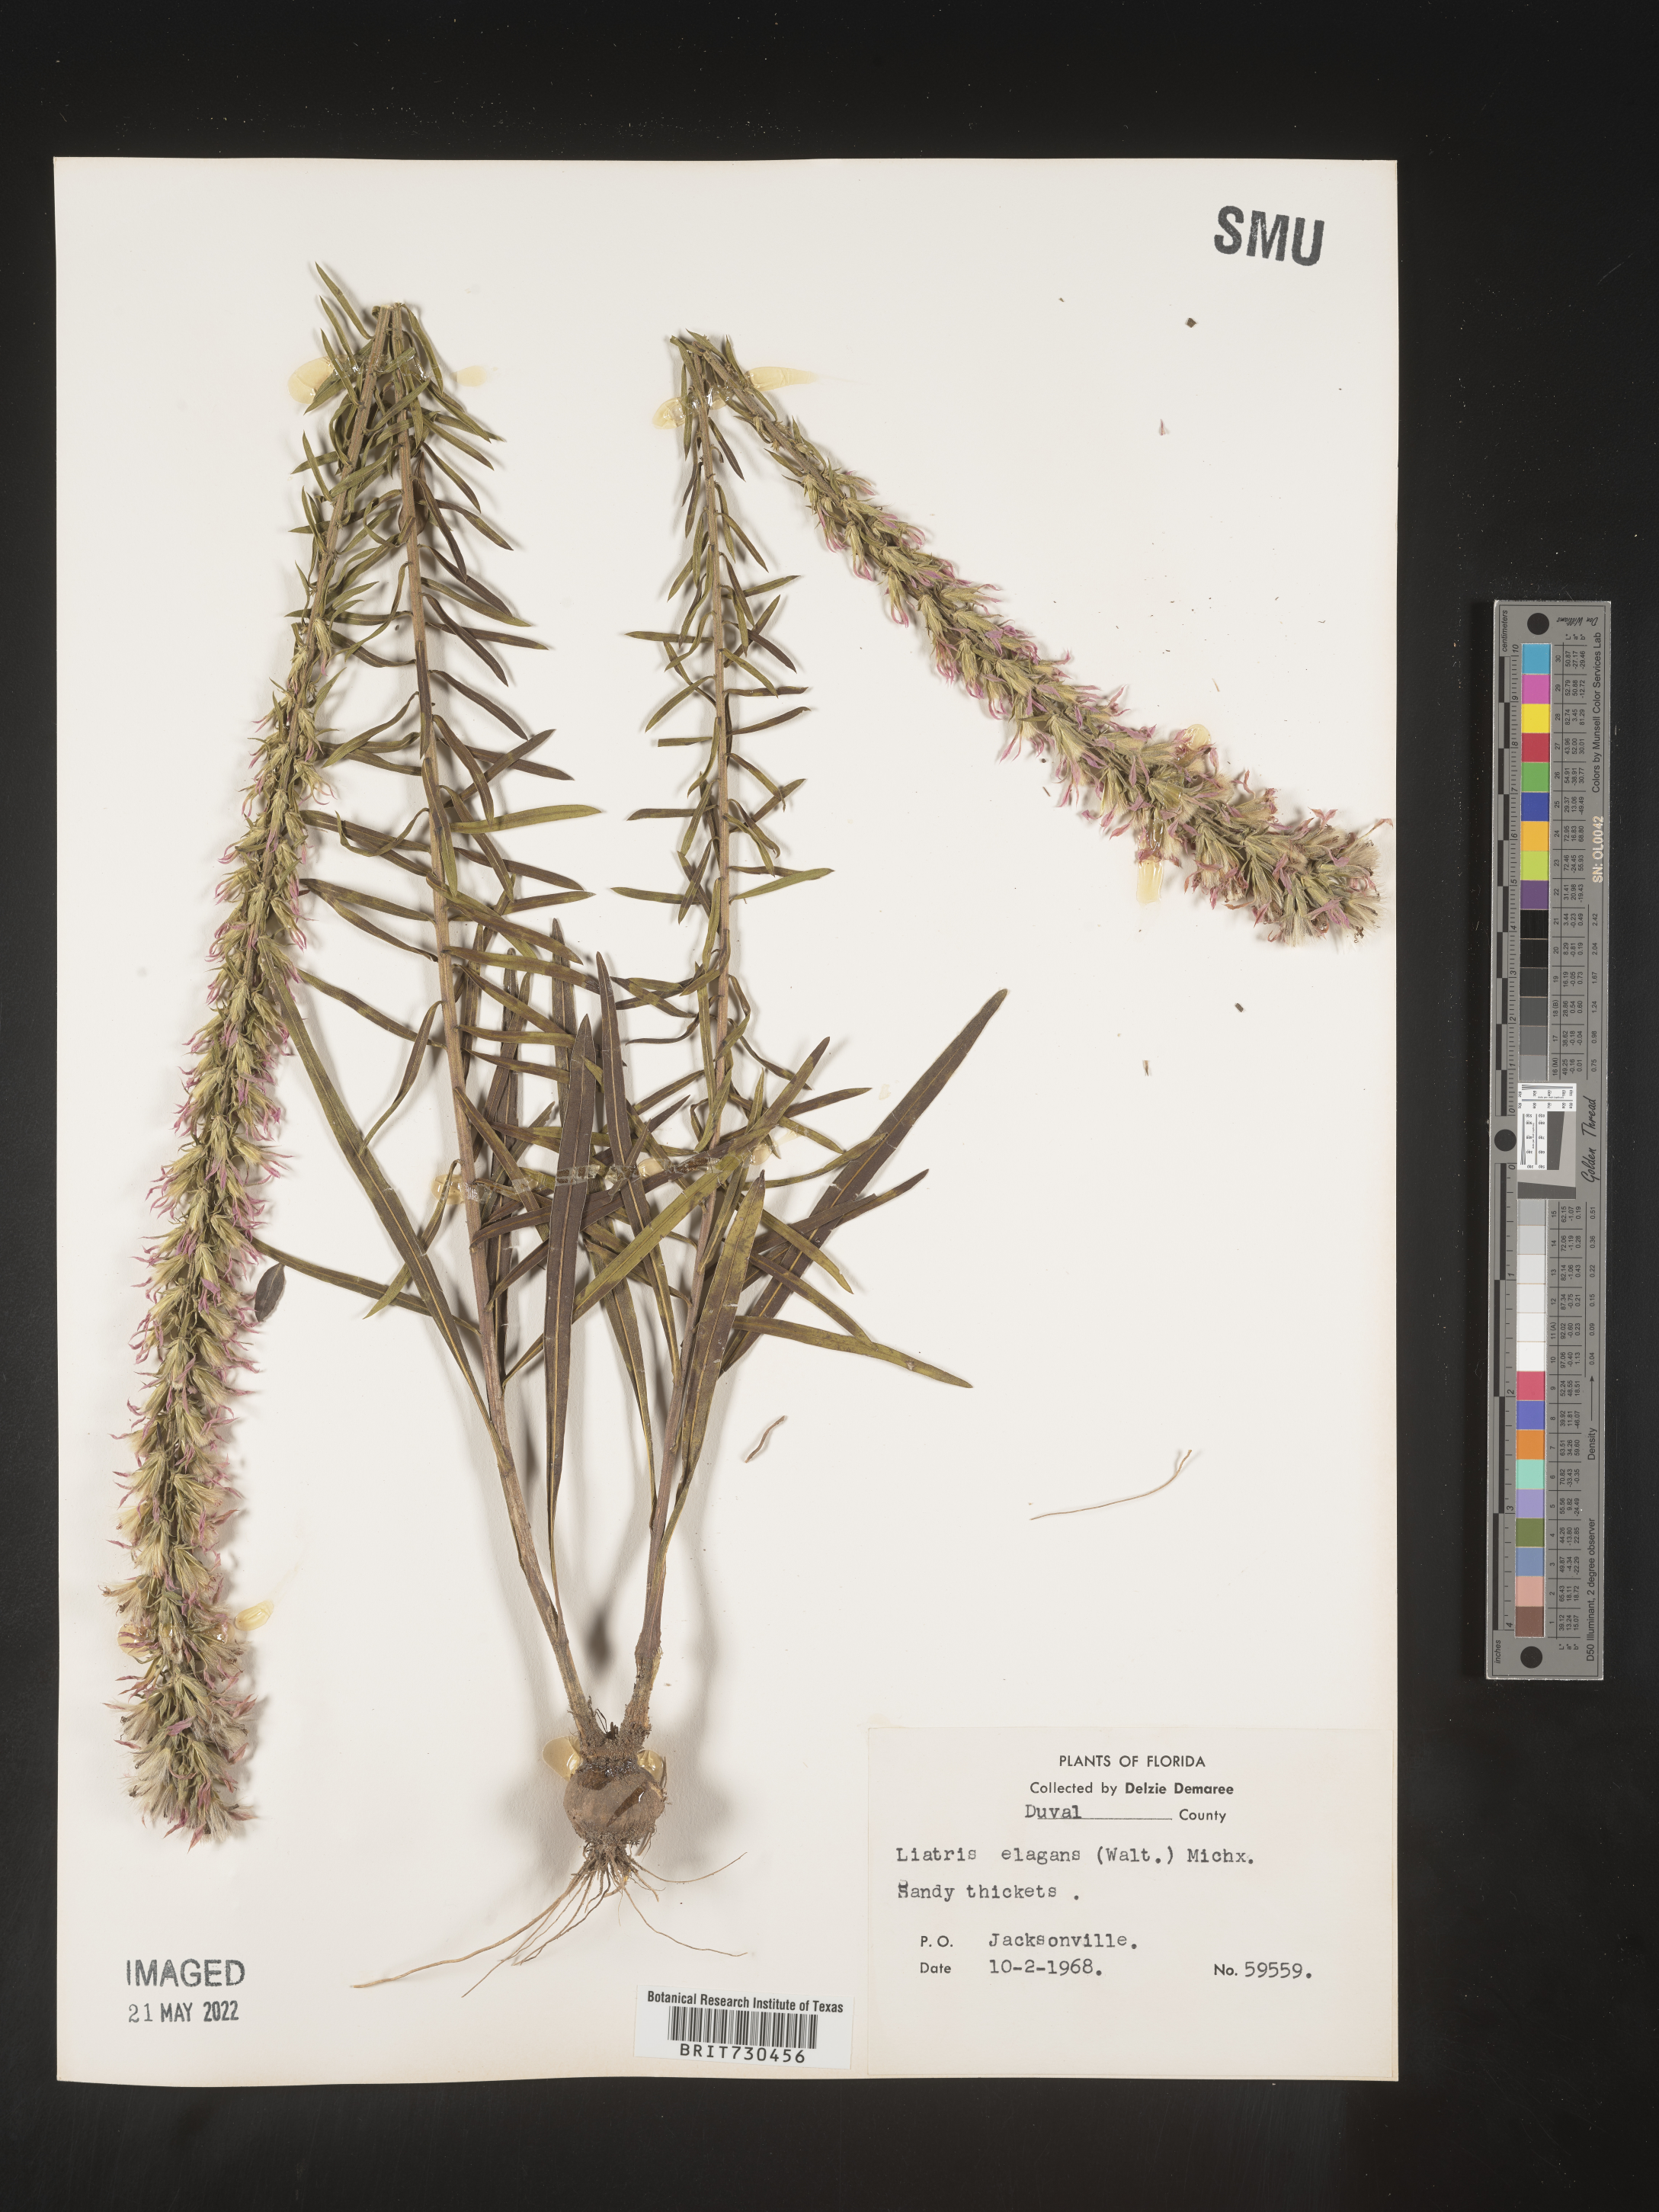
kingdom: Plantae
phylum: Tracheophyta
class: Magnoliopsida
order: Asterales
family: Asteraceae
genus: Liatris
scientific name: Liatris elegans
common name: Pinkscale gayfeather
